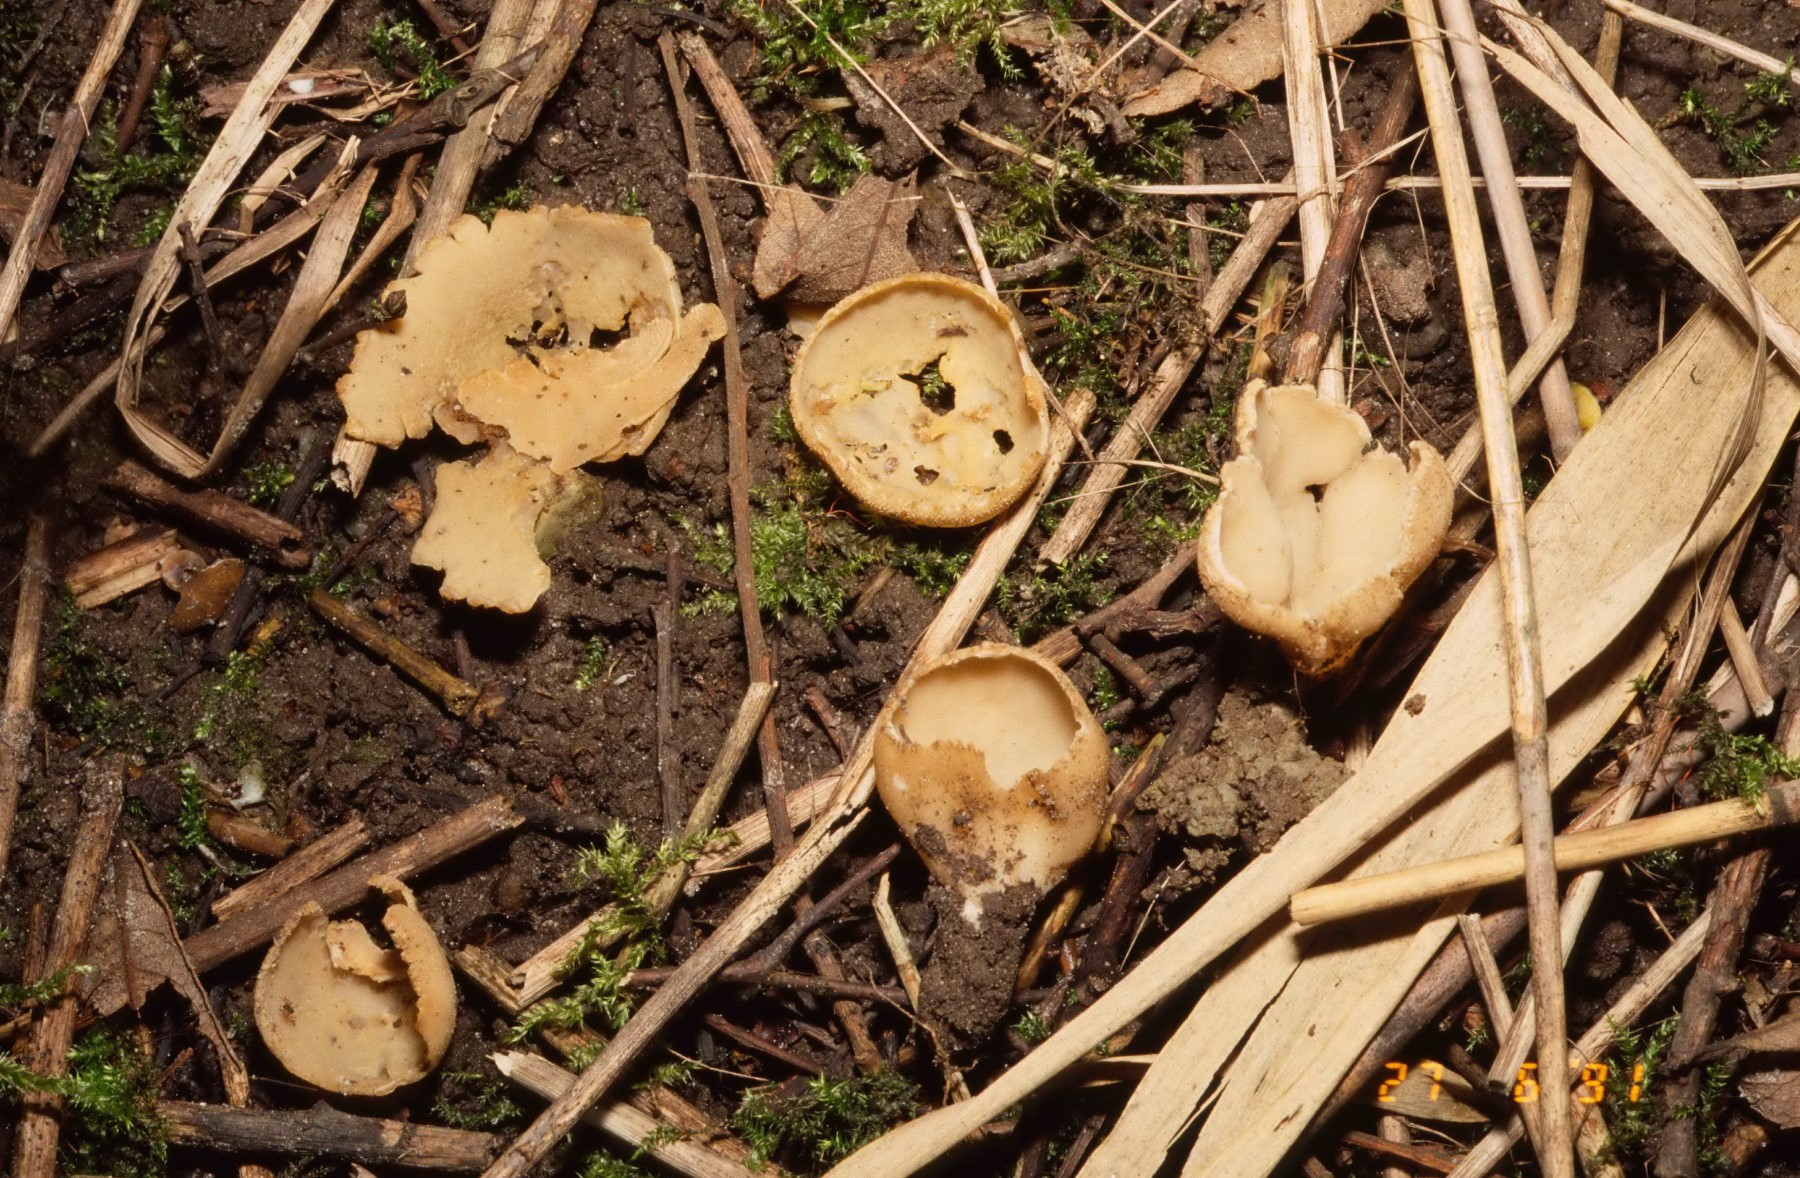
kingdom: Fungi
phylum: Ascomycota
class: Pezizomycetes
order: Pezizales
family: Pyronemataceae
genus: Tarzetta
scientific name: Tarzetta cupularis
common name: gulbrun pokalbæger
